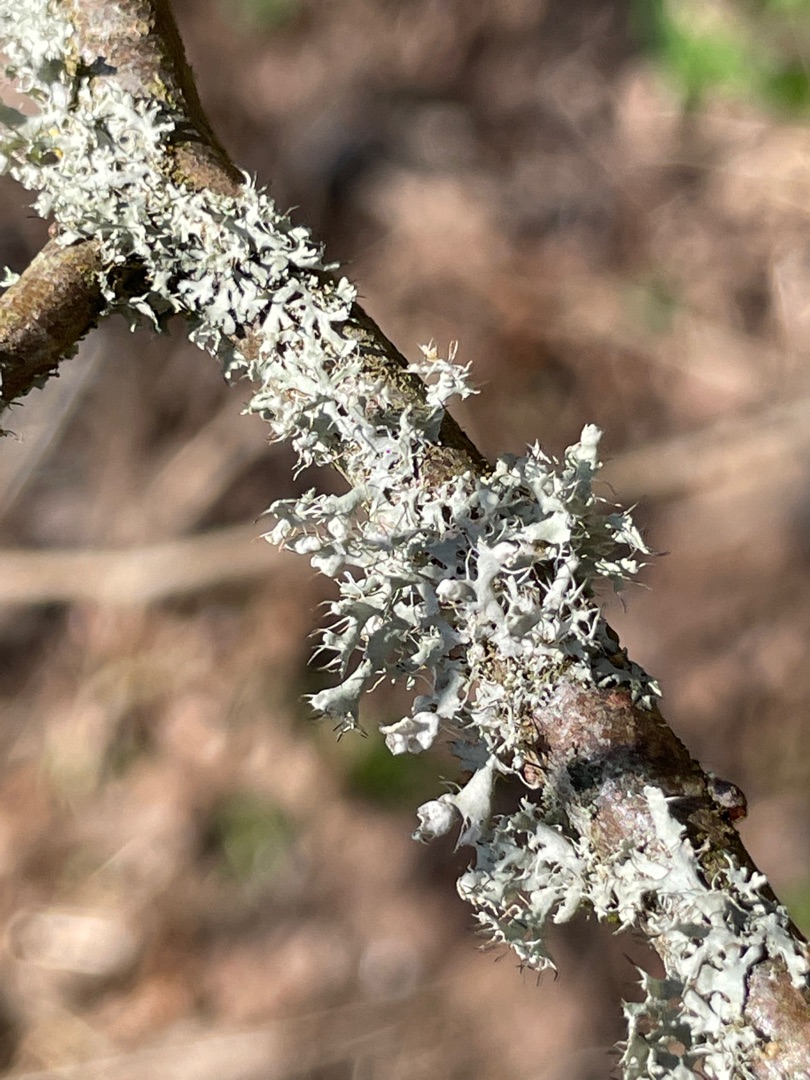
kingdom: Fungi
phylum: Ascomycota
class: Lecanoromycetes
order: Caliciales
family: Physciaceae
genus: Physcia
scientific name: Physcia adscendens
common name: Hætte-rosetlav
